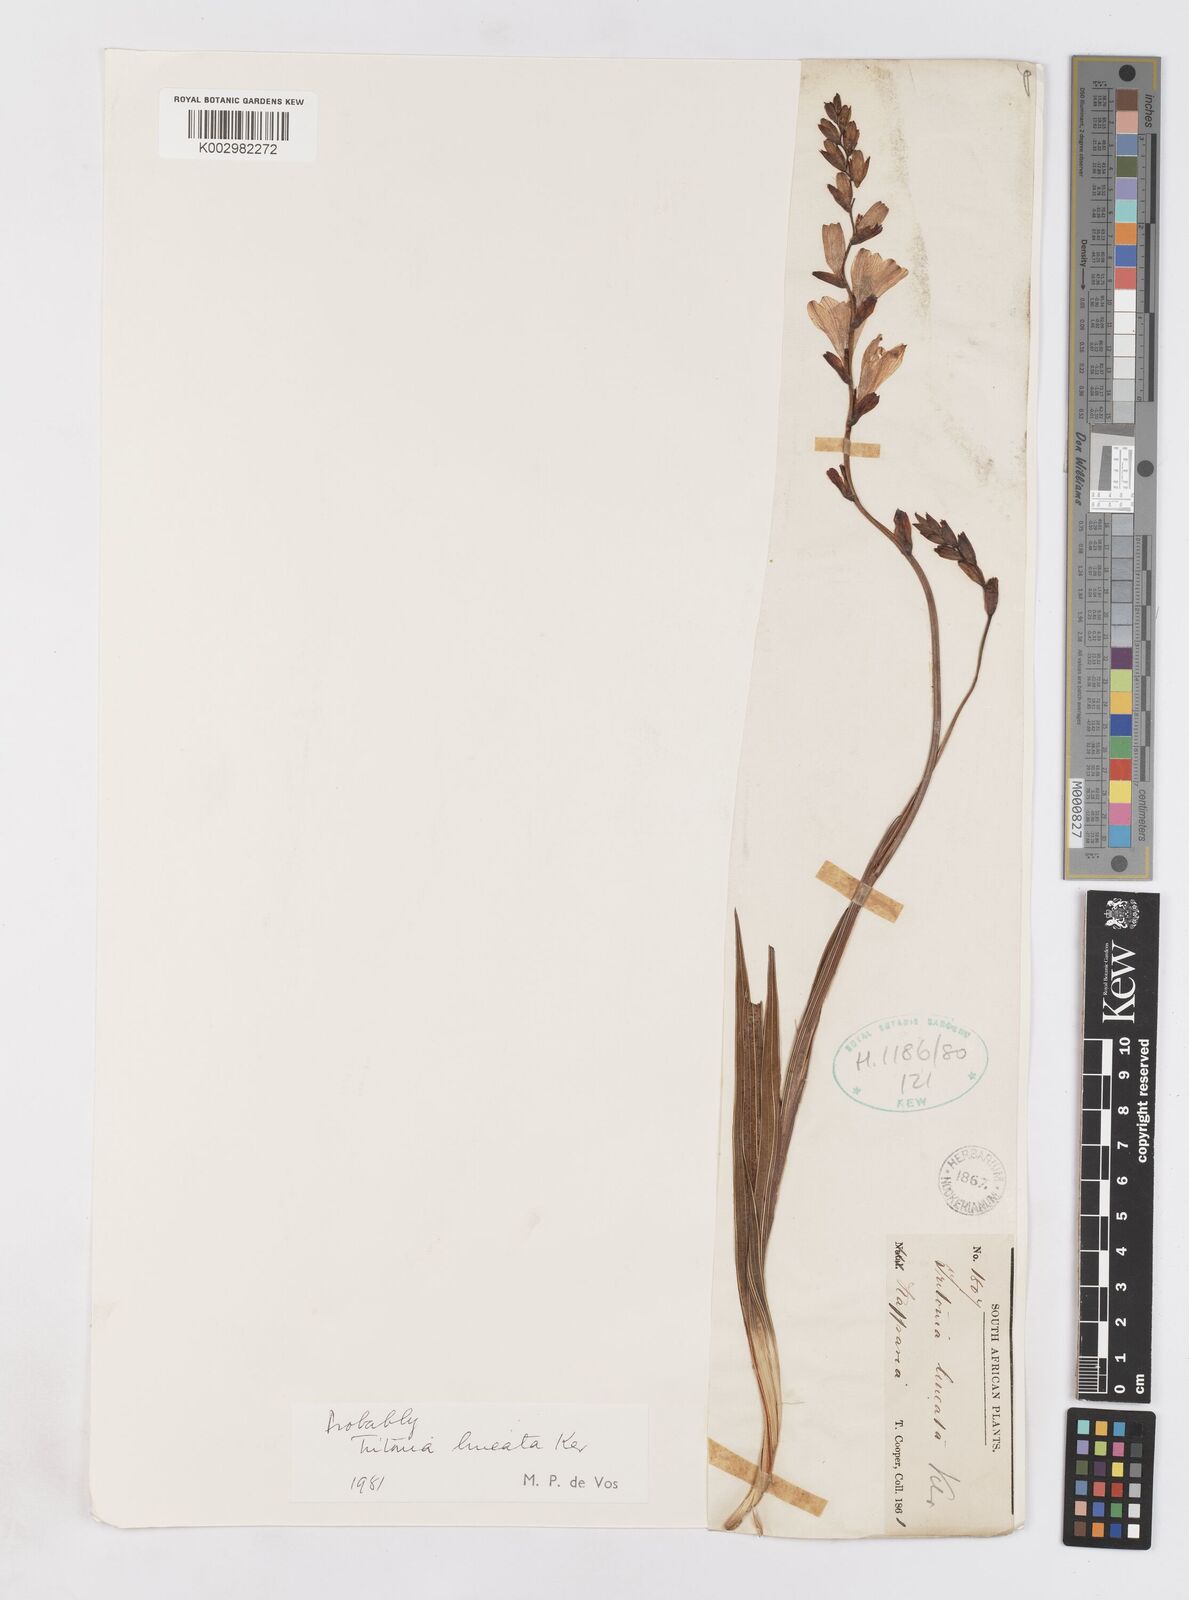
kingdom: Plantae
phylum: Tracheophyta
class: Liliopsida
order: Asparagales
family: Iridaceae
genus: Tritonia
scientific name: Tritonia gladiolaris
